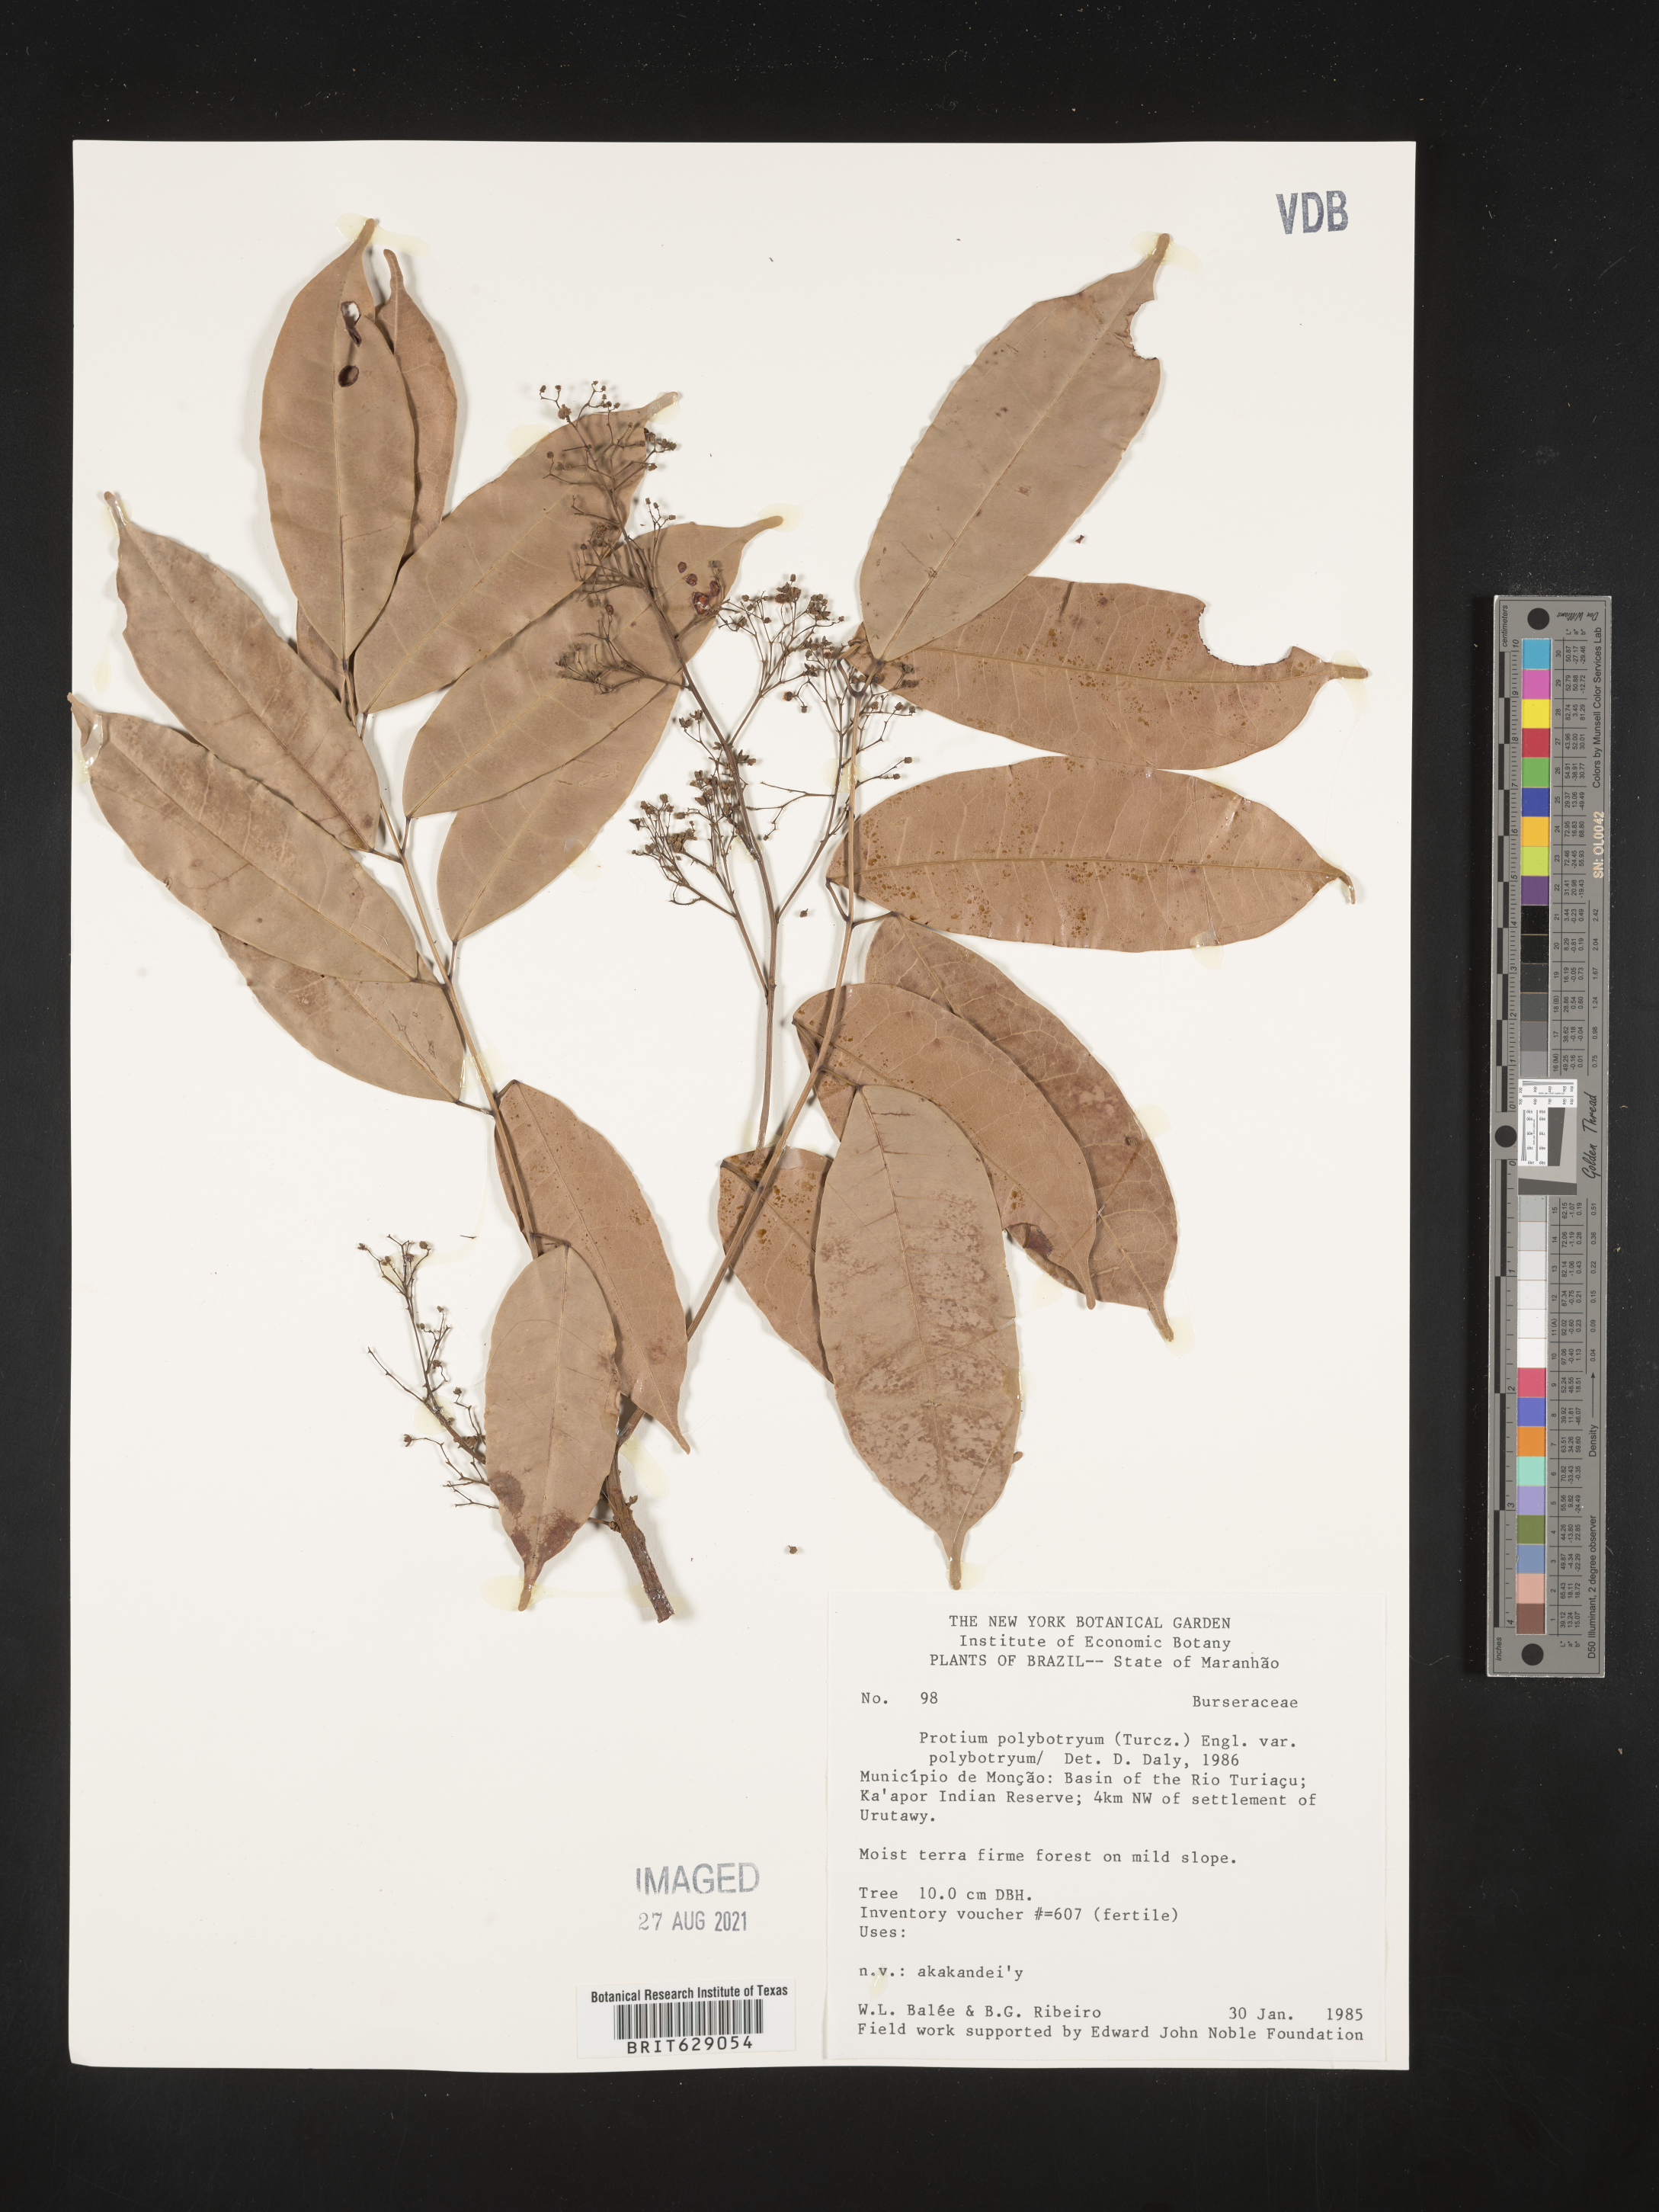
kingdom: Plantae
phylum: Tracheophyta
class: Magnoliopsida
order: Sapindales
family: Burseraceae
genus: Protium
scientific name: Protium polybotryum
